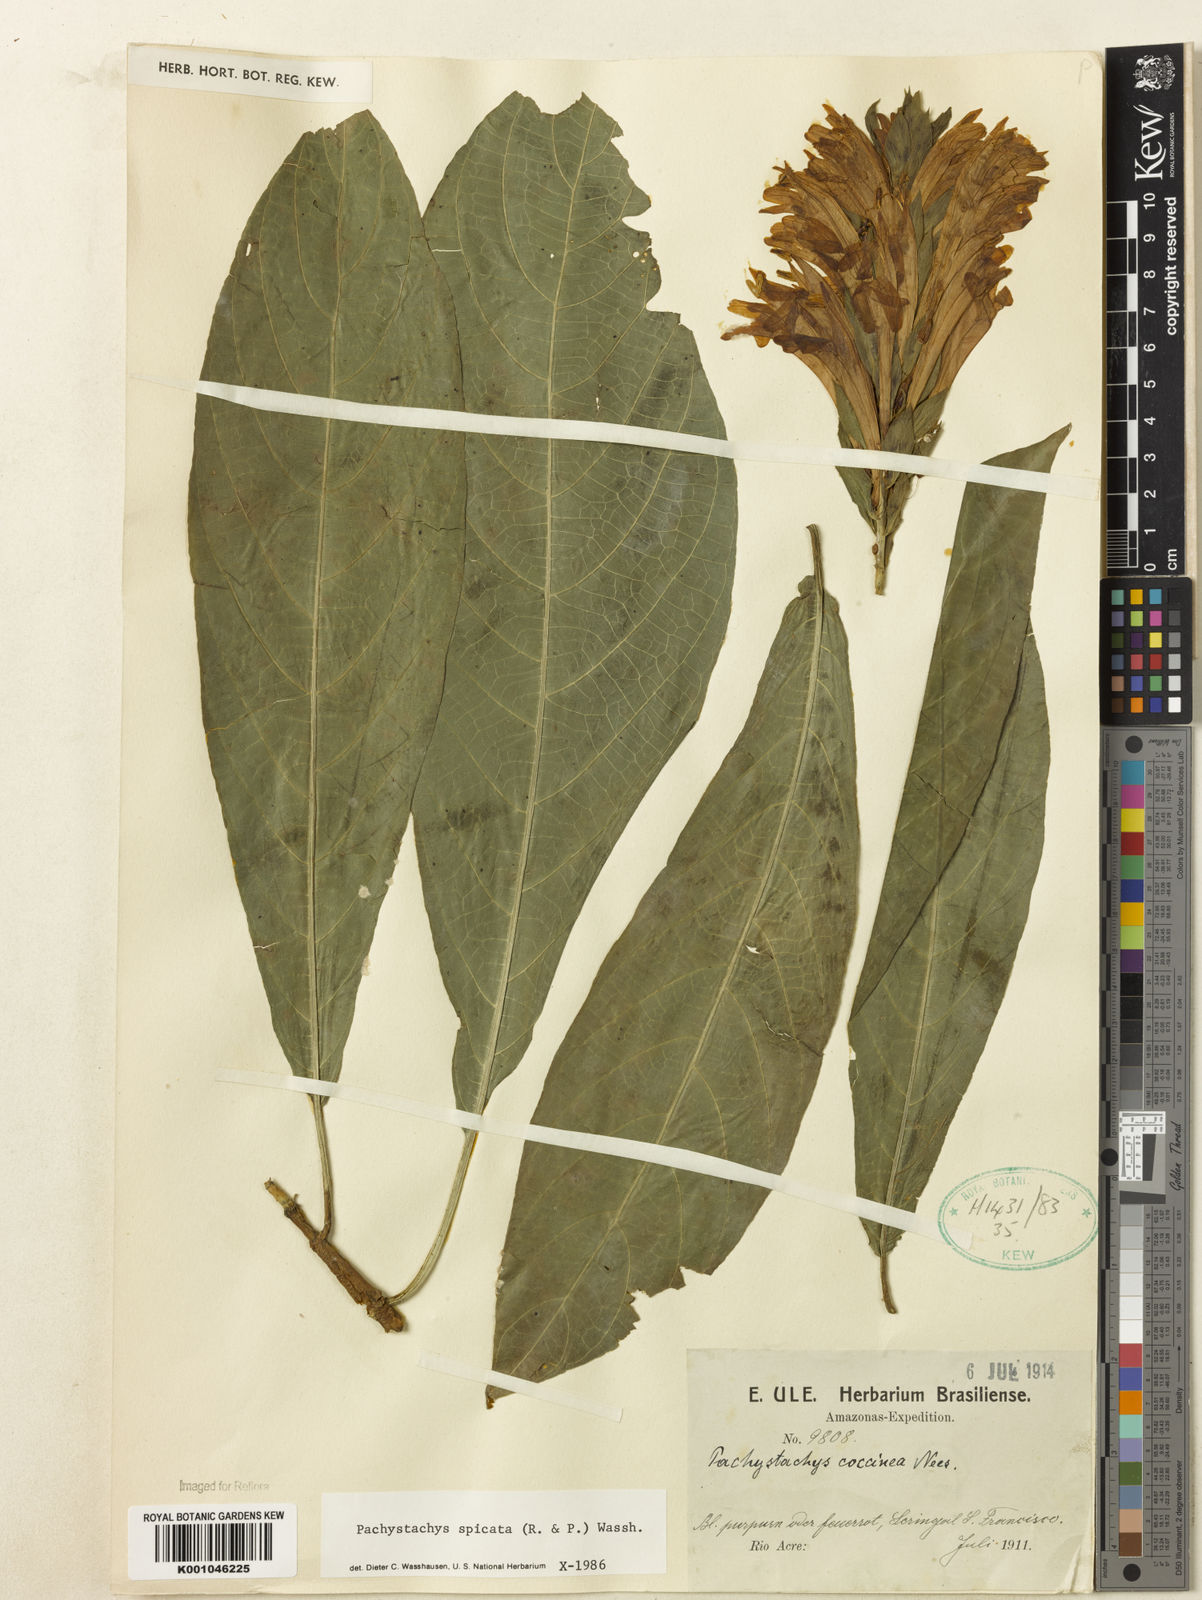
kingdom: Plantae
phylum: Tracheophyta
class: Magnoliopsida
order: Lamiales
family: Acanthaceae
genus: Pachystachys
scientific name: Pachystachys spicata
